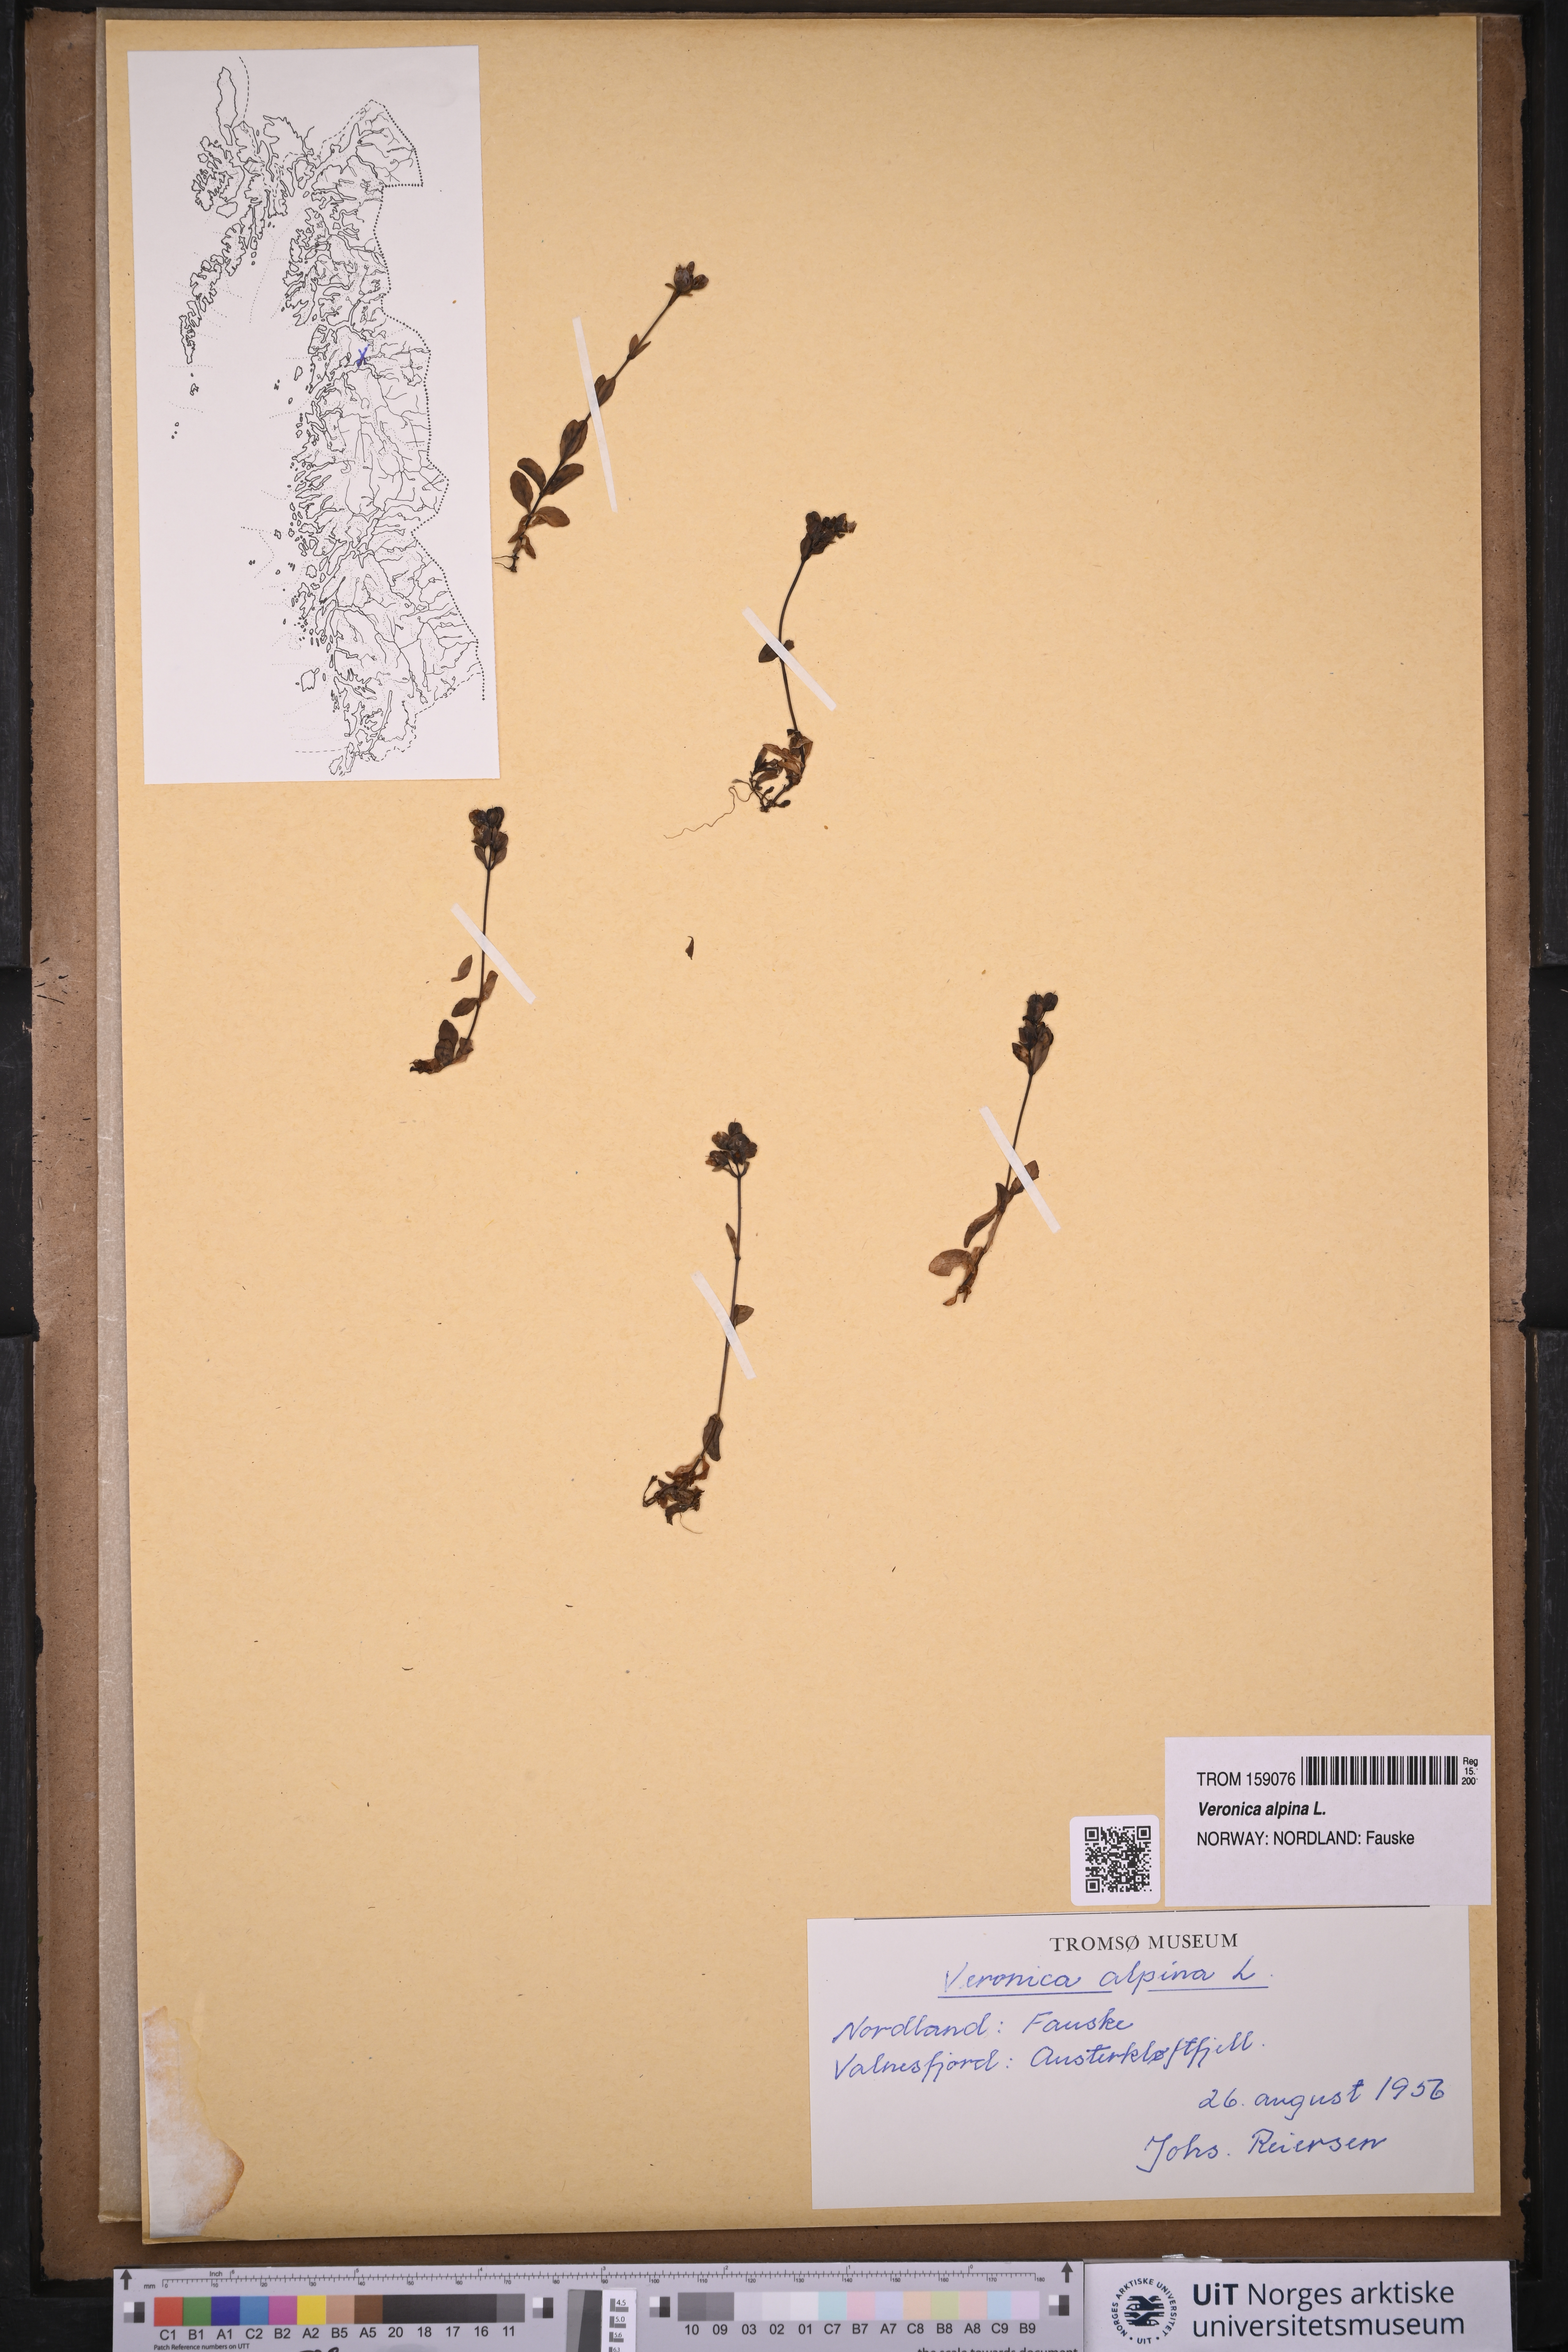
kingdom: Plantae
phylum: Tracheophyta
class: Magnoliopsida
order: Lamiales
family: Plantaginaceae
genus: Veronica
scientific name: Veronica alpina
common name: Alpine speedwell
